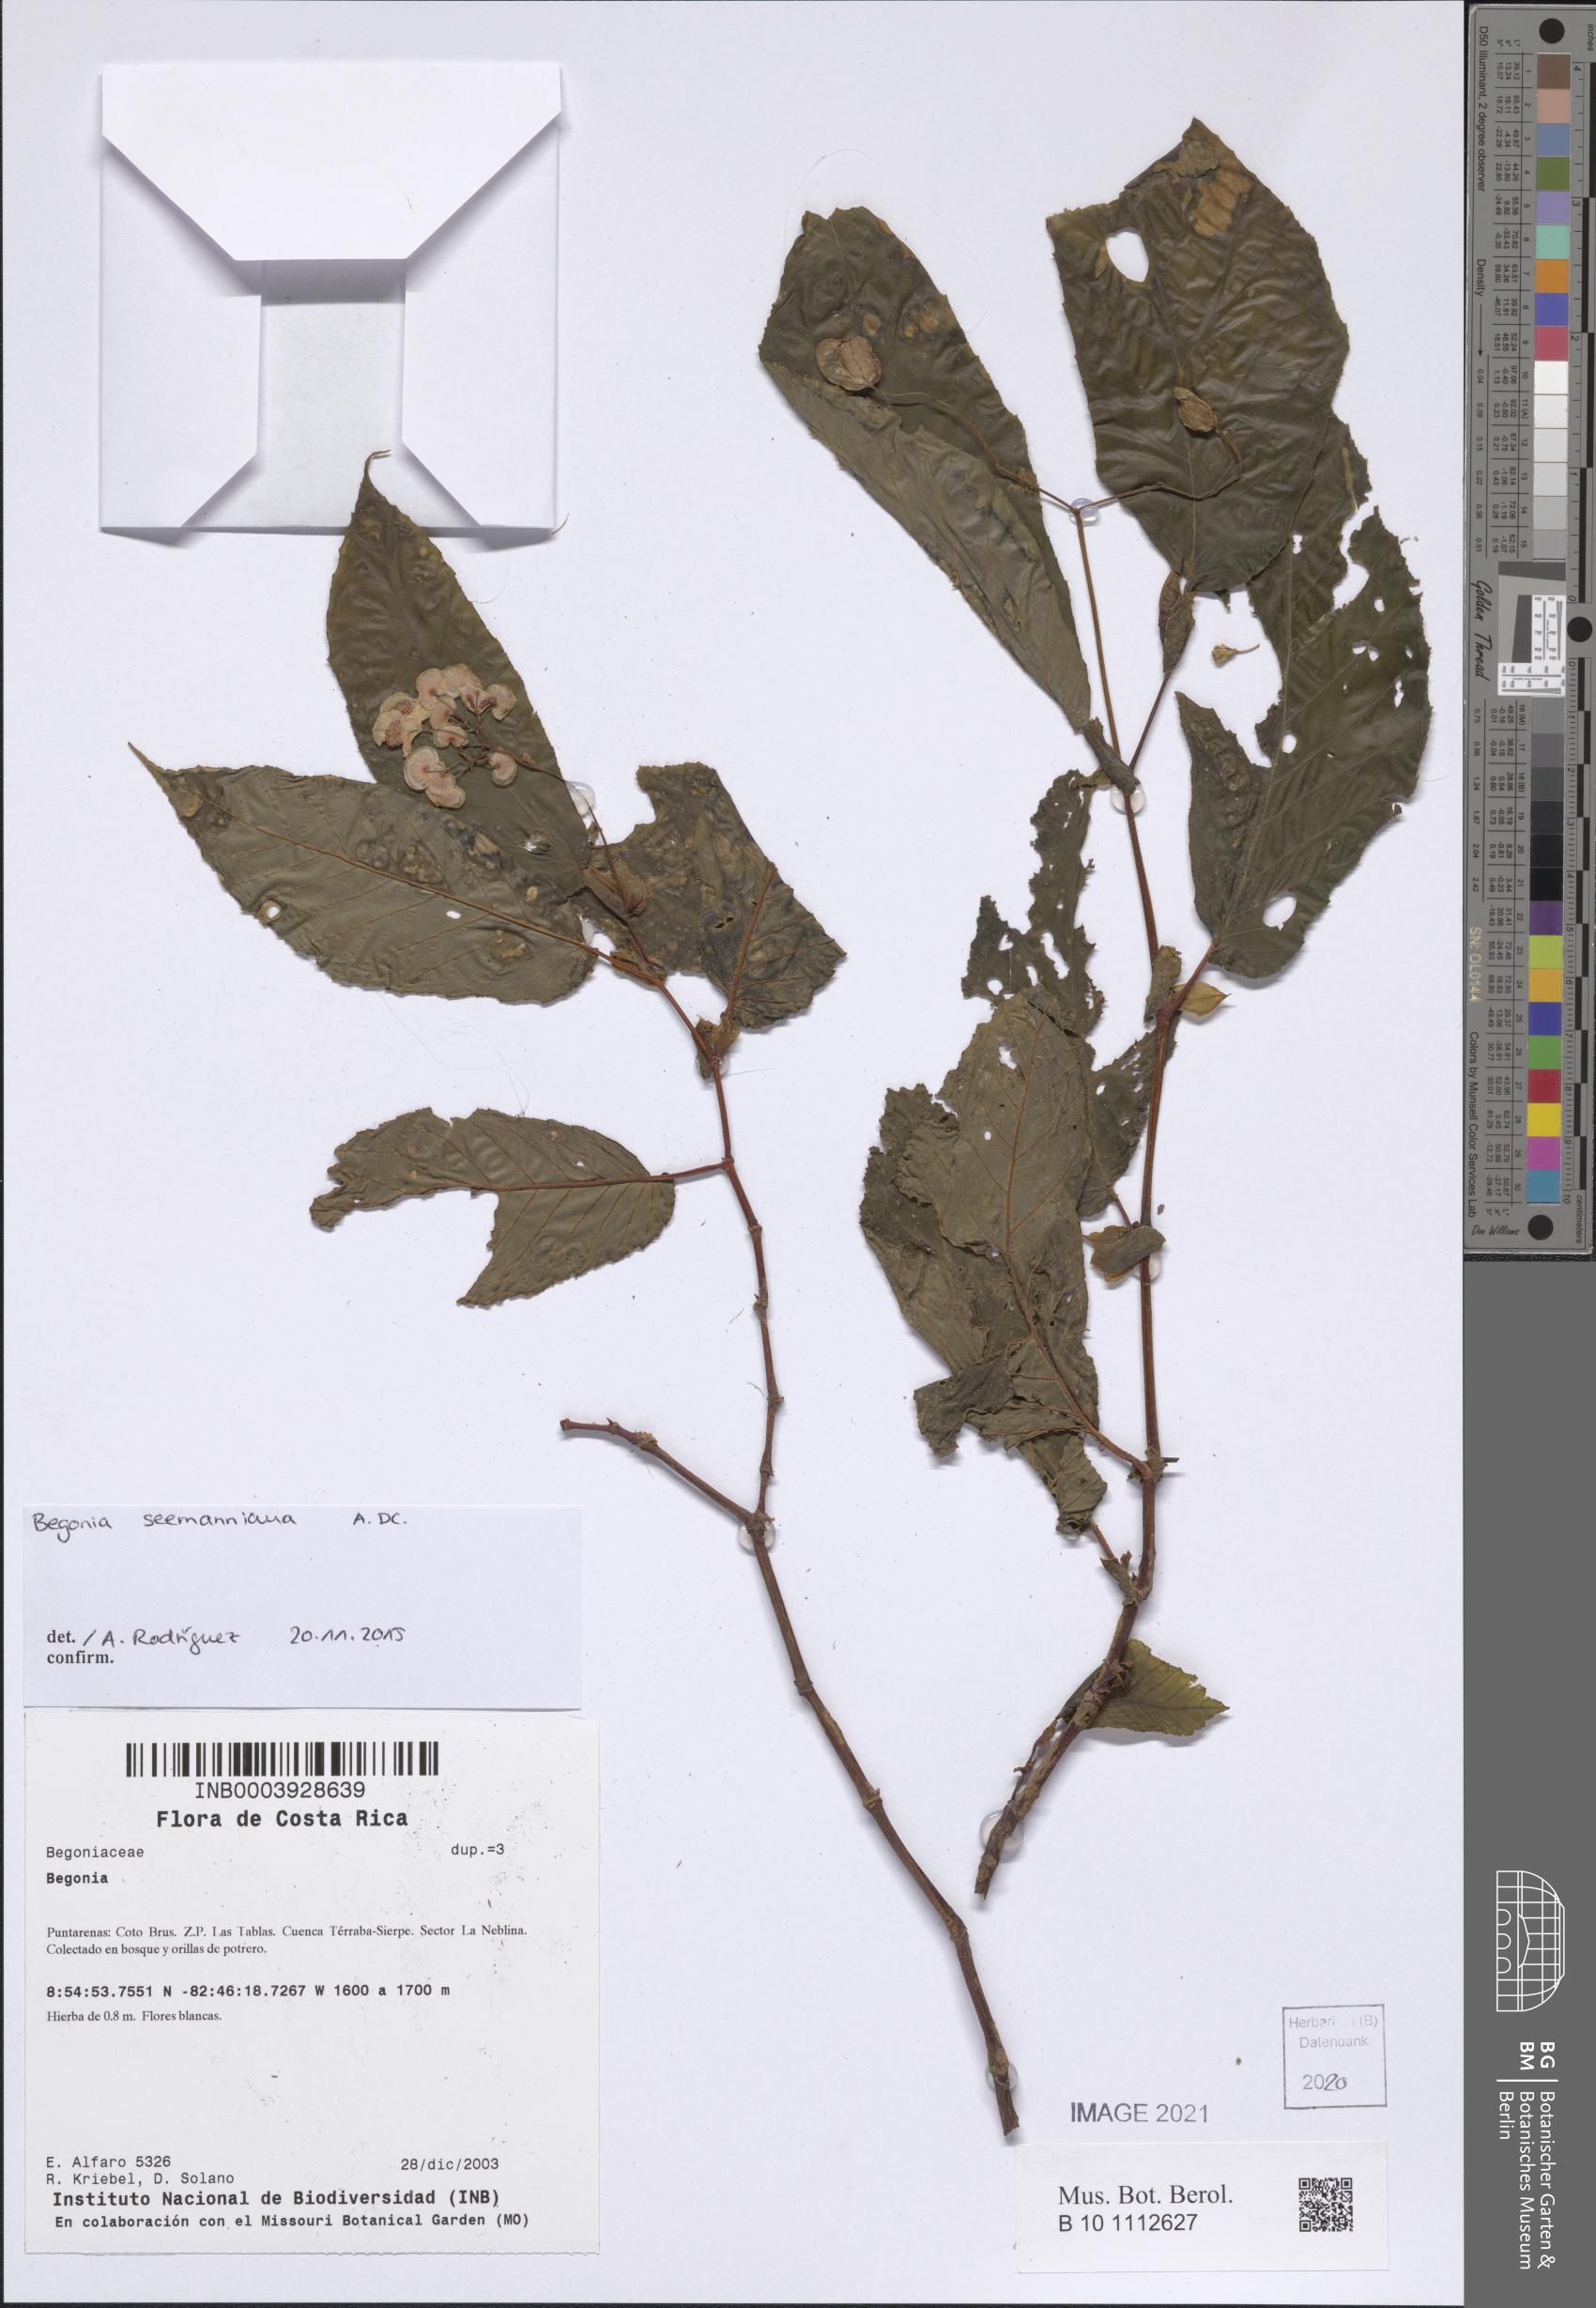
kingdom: Plantae
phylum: Tracheophyta
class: Magnoliopsida
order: Cucurbitales
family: Begoniaceae
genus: Begonia
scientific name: Begonia
